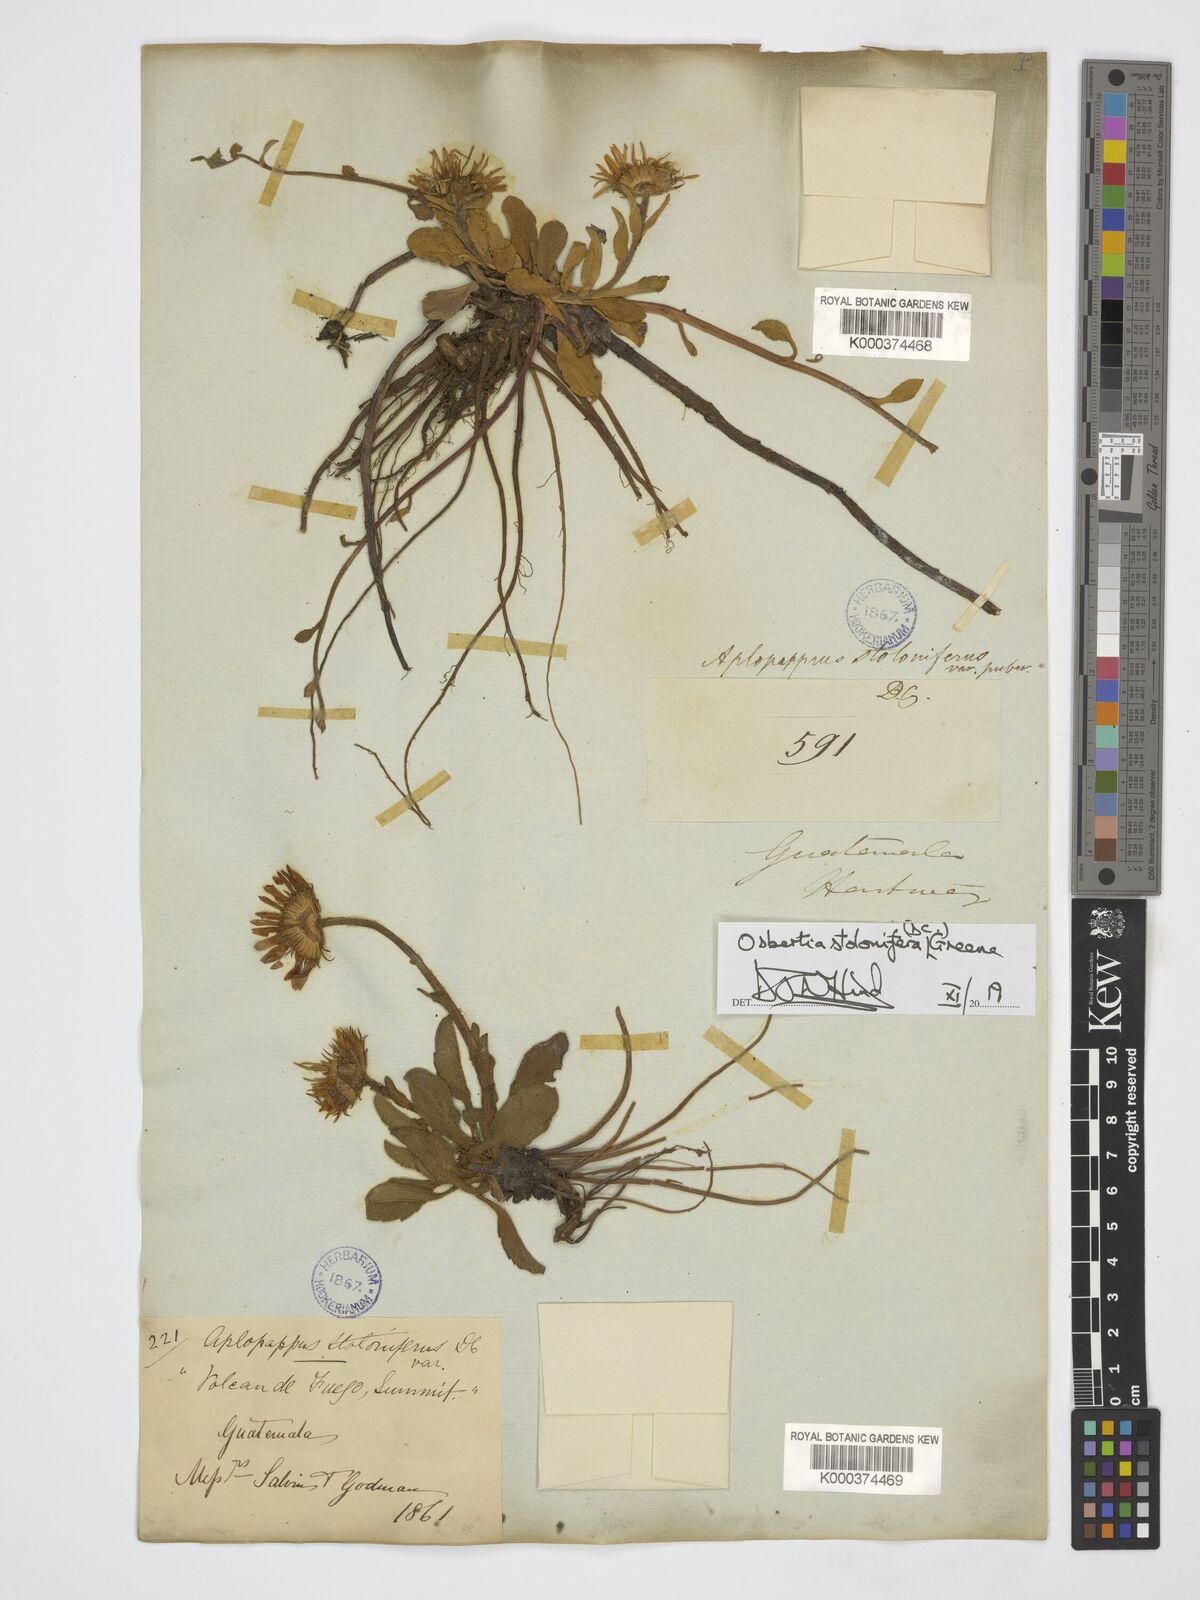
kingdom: Plantae
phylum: Tracheophyta
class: Magnoliopsida
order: Asterales
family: Asteraceae
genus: Osbertia
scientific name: Osbertia stolonifera
